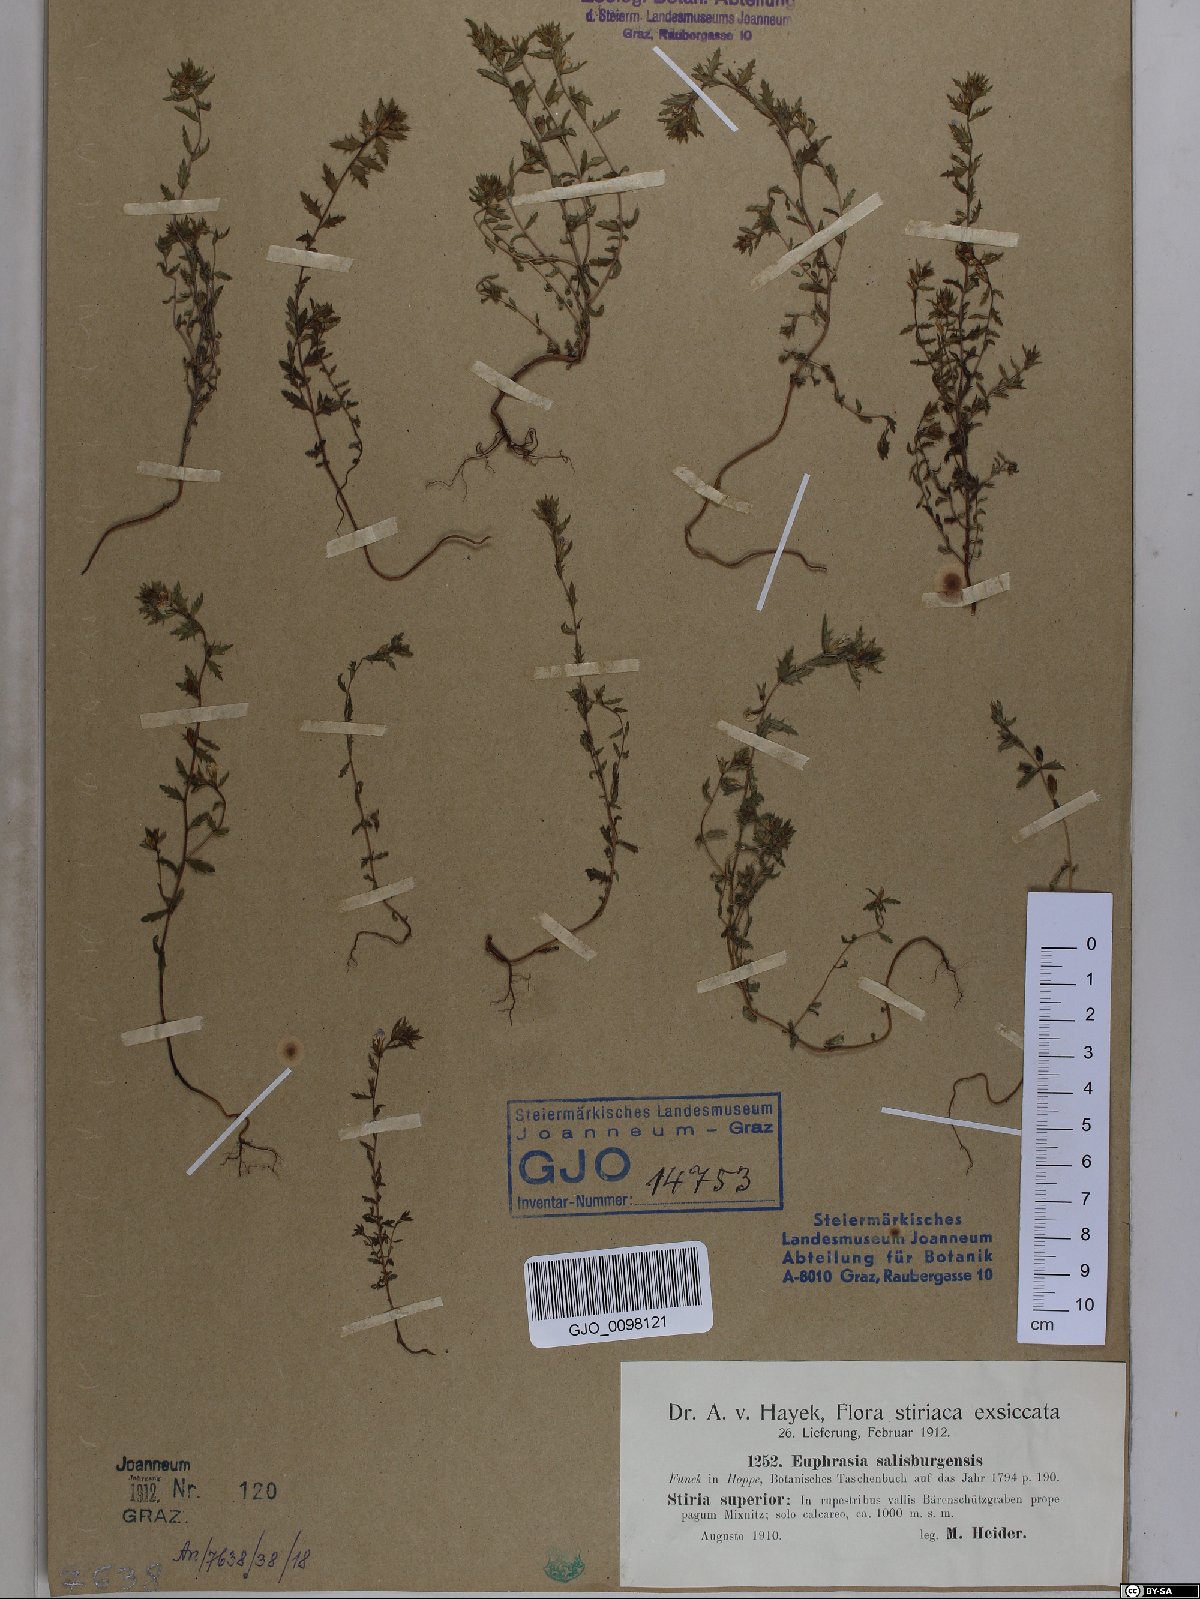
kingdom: Plantae
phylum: Tracheophyta
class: Magnoliopsida
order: Lamiales
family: Orobanchaceae
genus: Euphrasia
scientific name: Euphrasia salisburgensis
